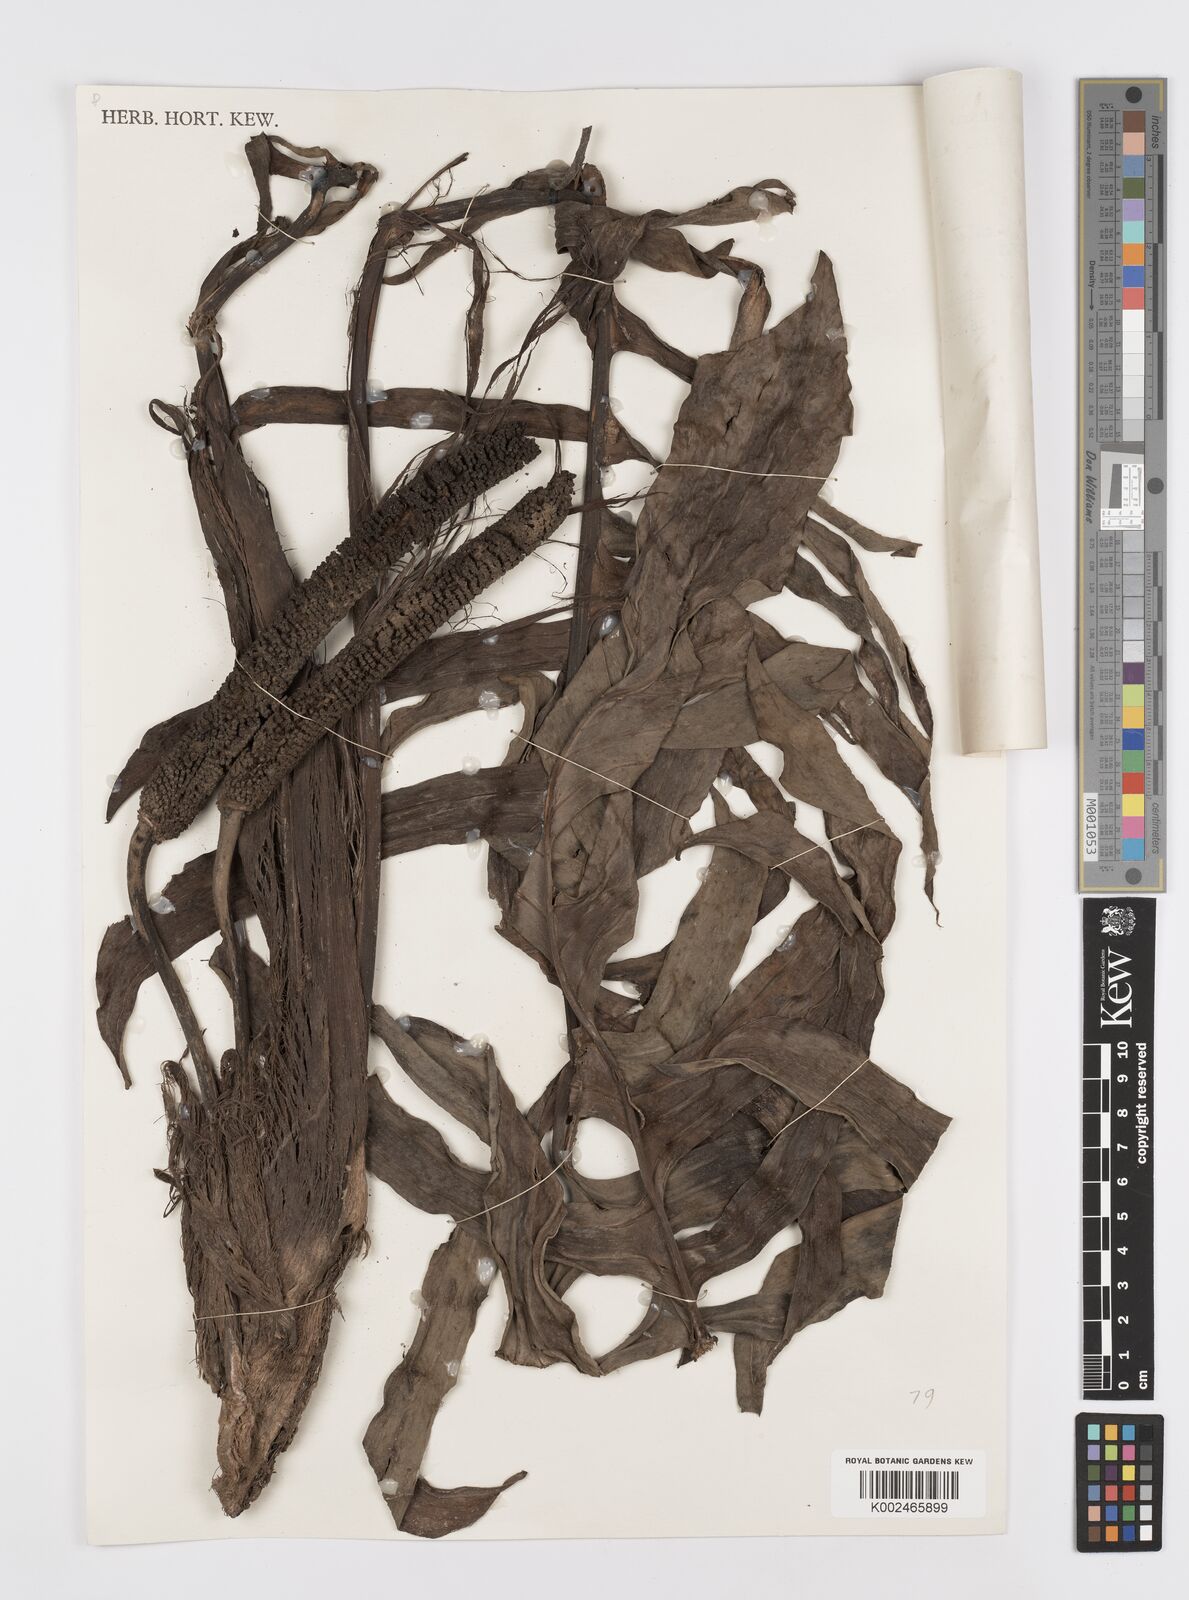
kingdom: Plantae
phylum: Tracheophyta
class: Liliopsida
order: Alismatales
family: Araceae
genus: Rhaphidophora
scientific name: Rhaphidophora korthalsii
